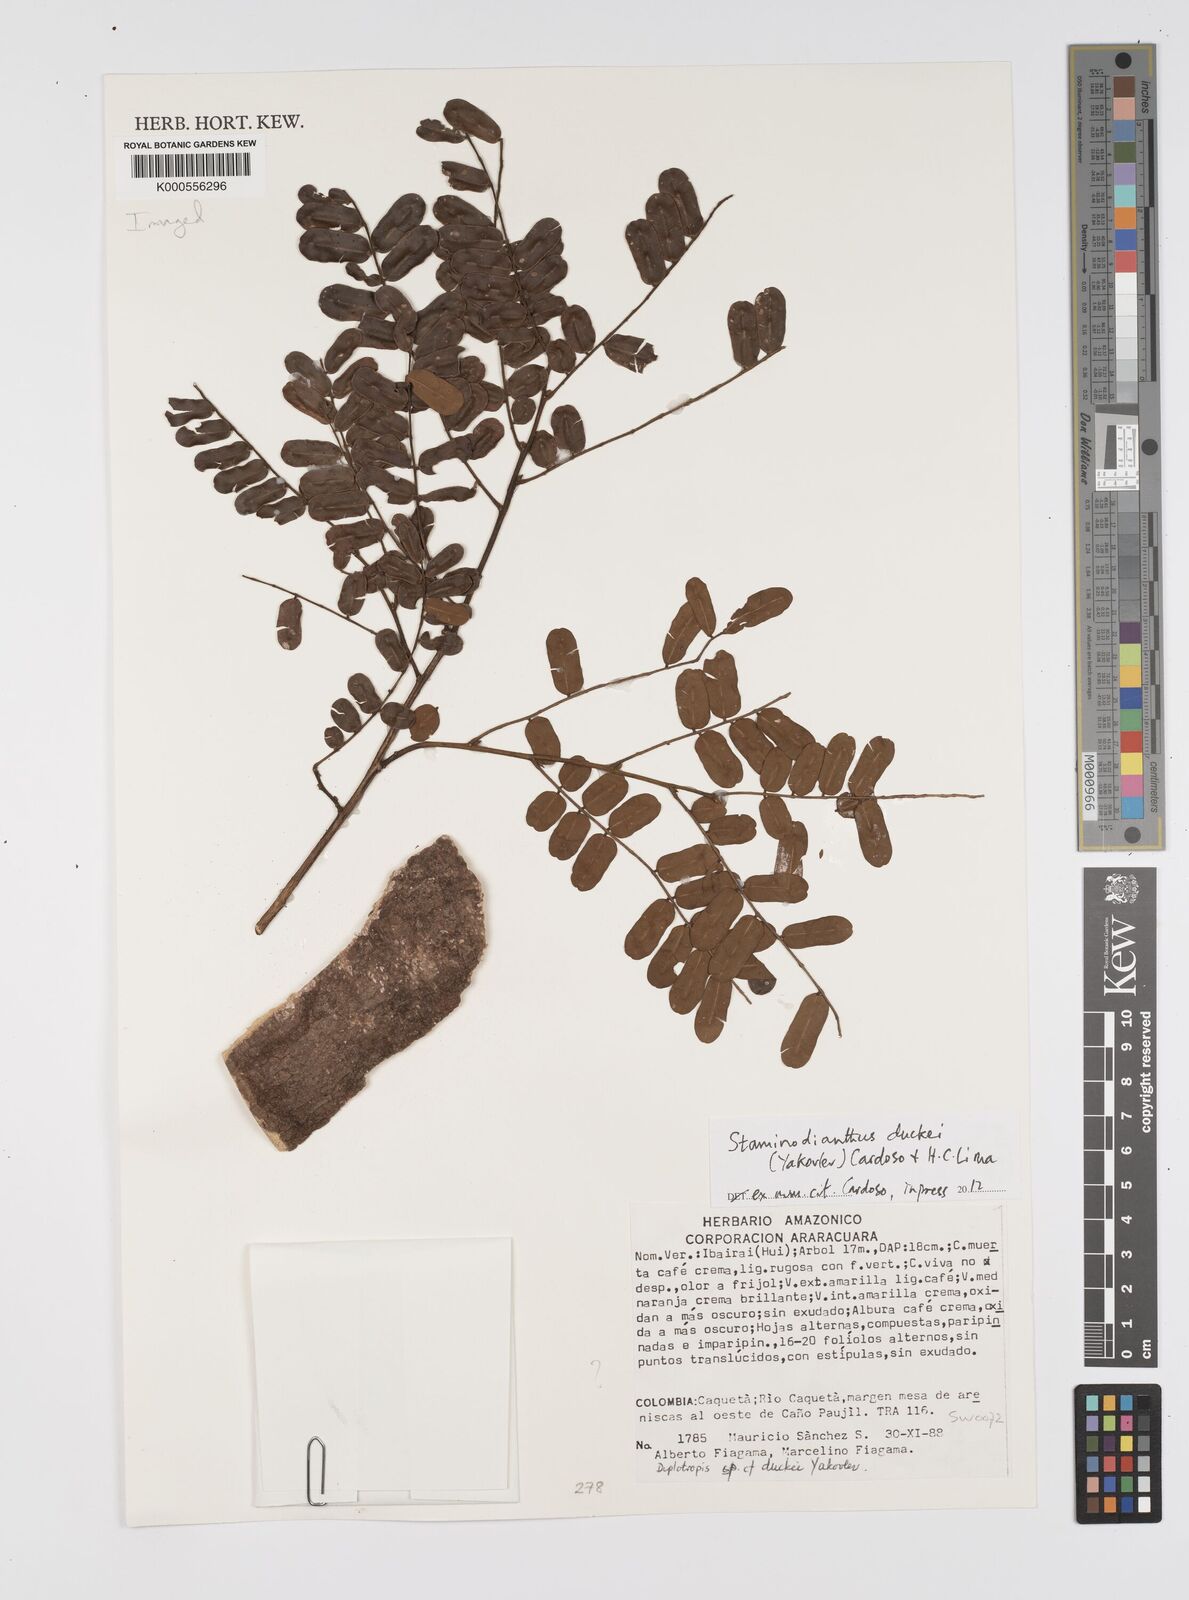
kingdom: Plantae
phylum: Tracheophyta
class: Magnoliopsida
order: Fabales
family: Fabaceae
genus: Diplotropis
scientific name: Diplotropis
